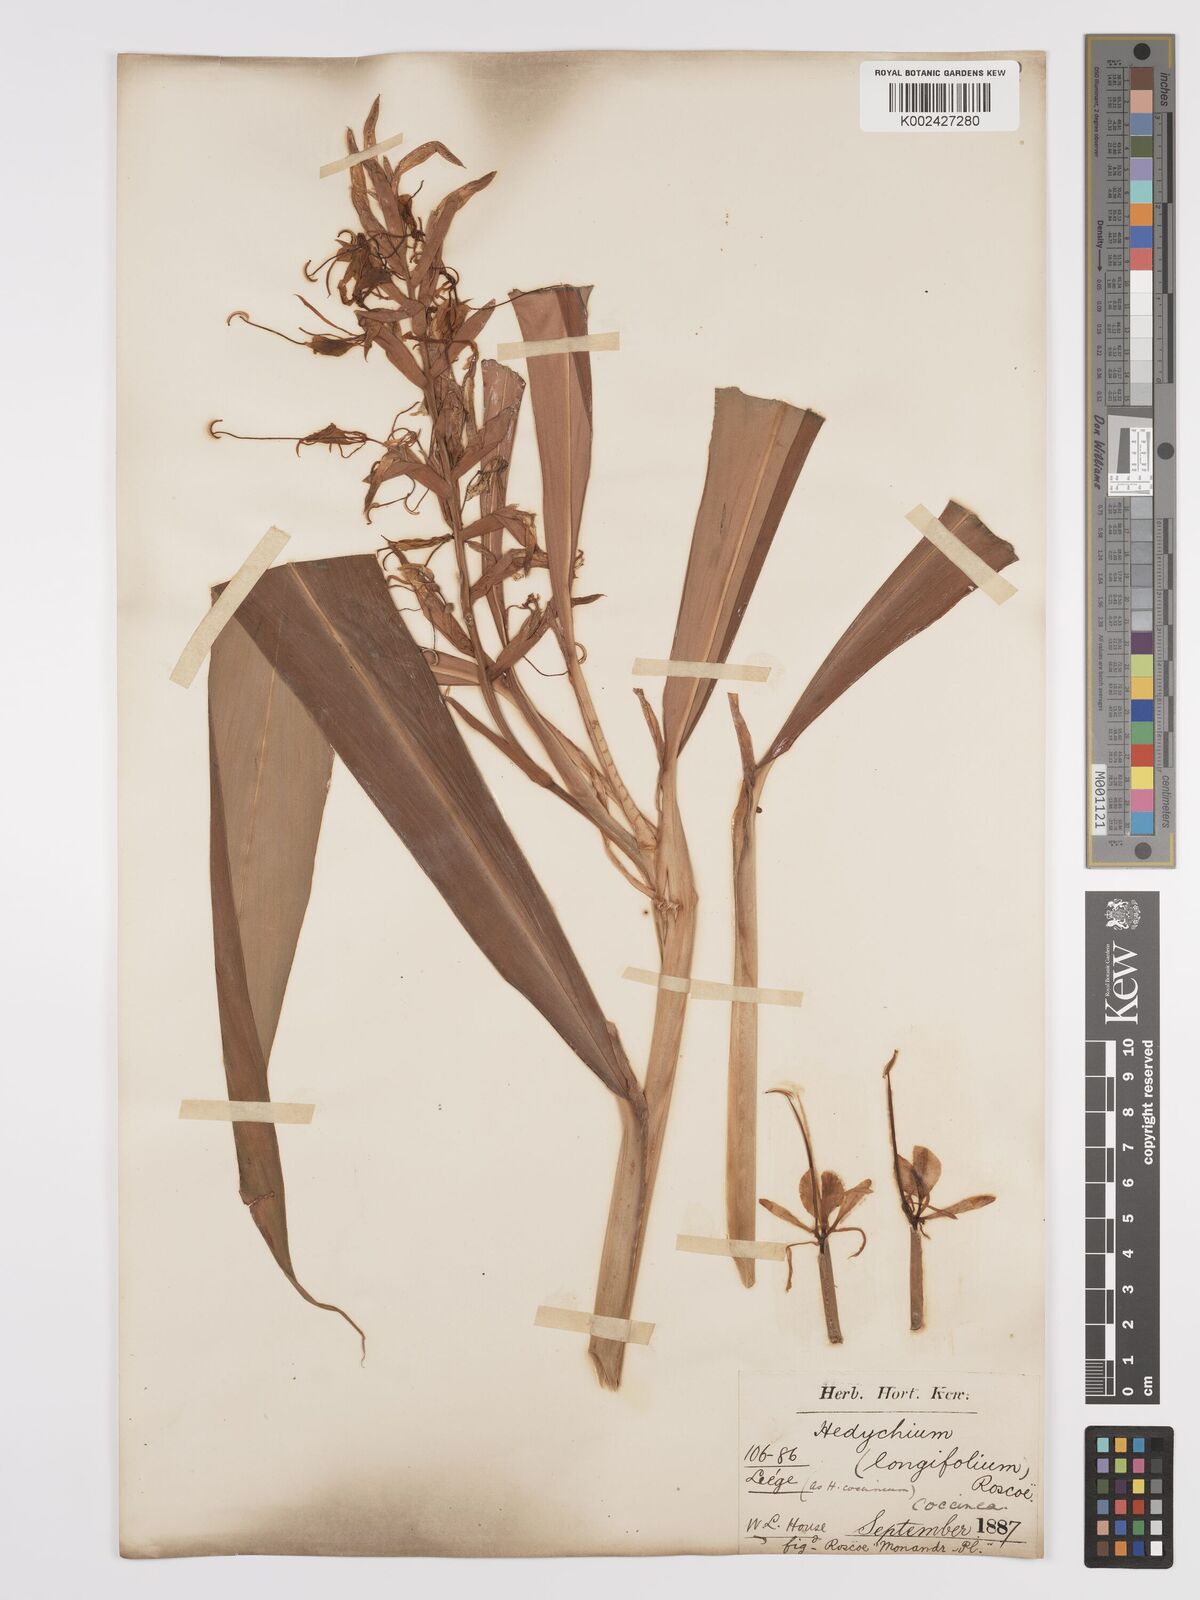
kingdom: Plantae
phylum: Tracheophyta
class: Liliopsida
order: Zingiberales
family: Zingiberaceae
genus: Hedychium
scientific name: Hedychium coccineum
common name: Red ginger-lily
